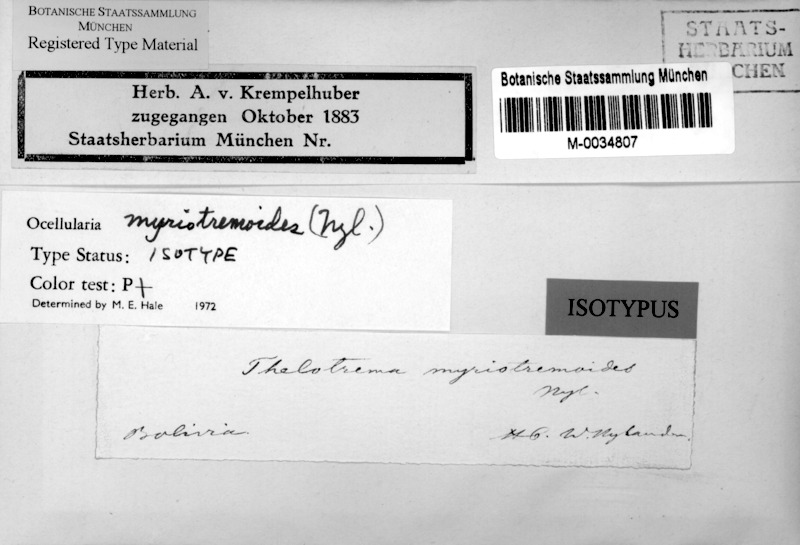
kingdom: Fungi
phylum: Ascomycota
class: Lecanoromycetes
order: Ostropales
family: Graphidaceae
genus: Myriotrema
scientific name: Myriotrema myriotremoides
